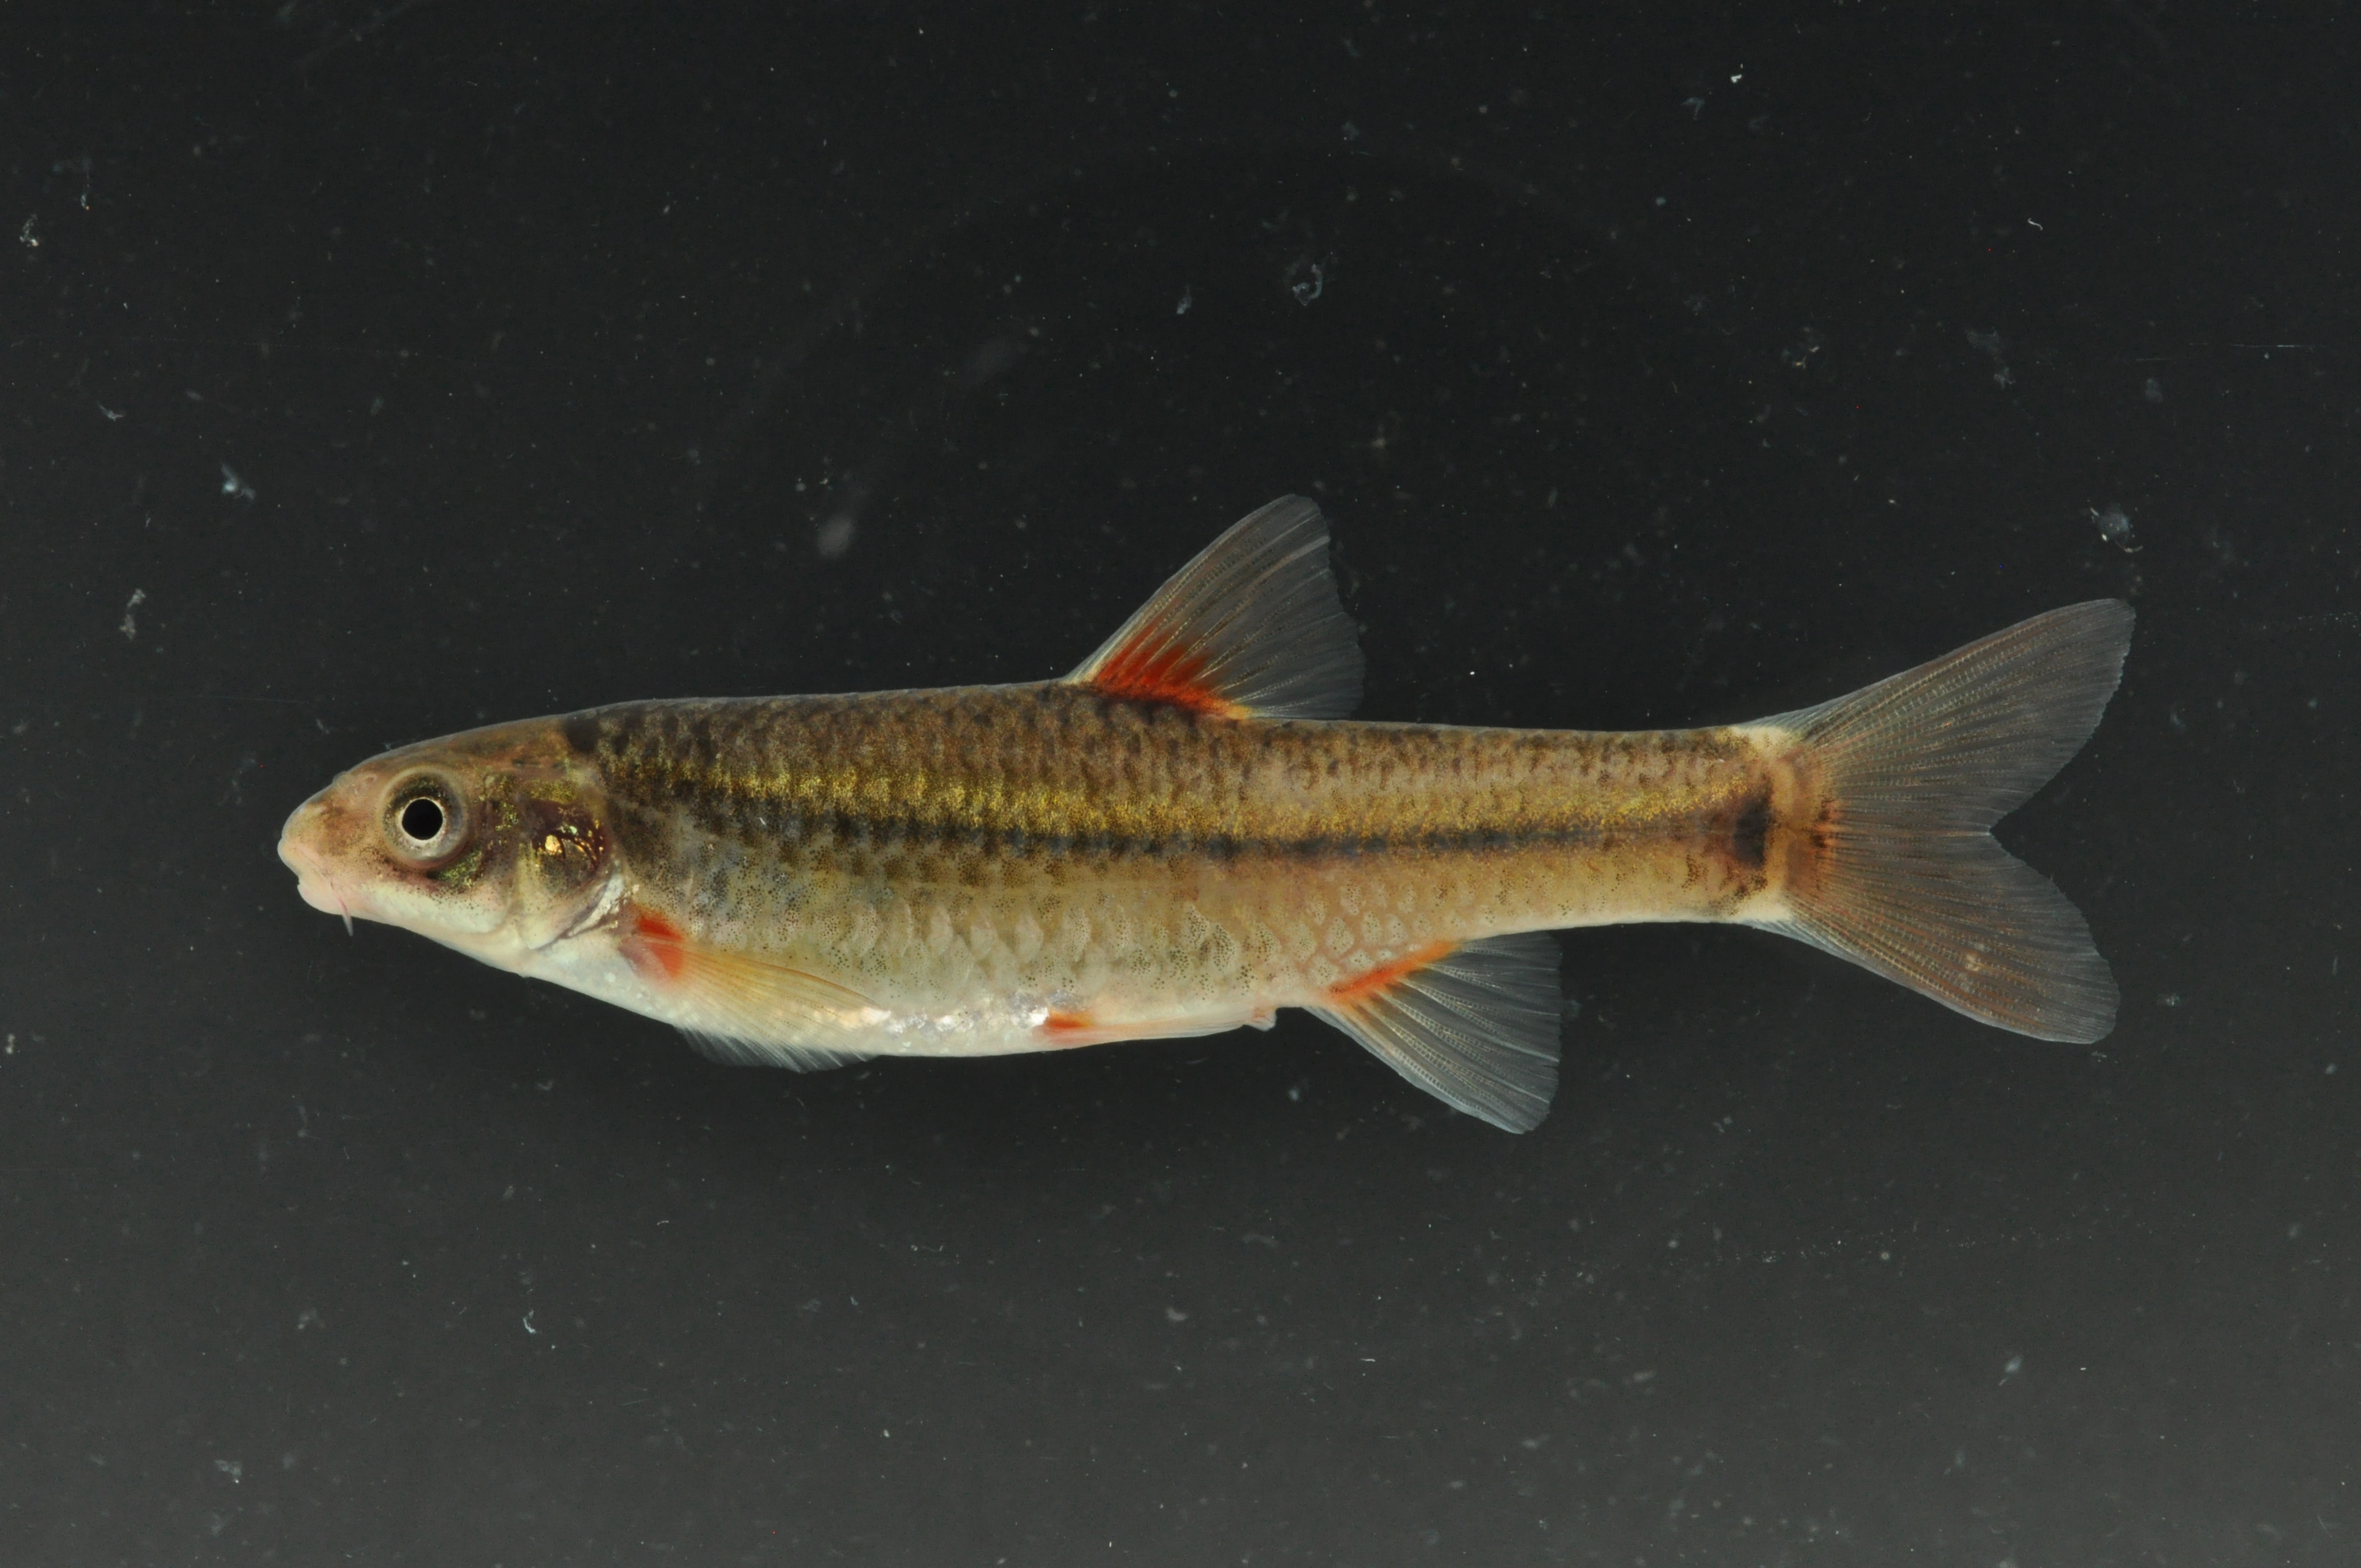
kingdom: Animalia
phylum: Chordata
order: Cypriniformes
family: Cyprinidae
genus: Pseudobarbus
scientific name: Pseudobarbus tenuis
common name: Slender redfin
